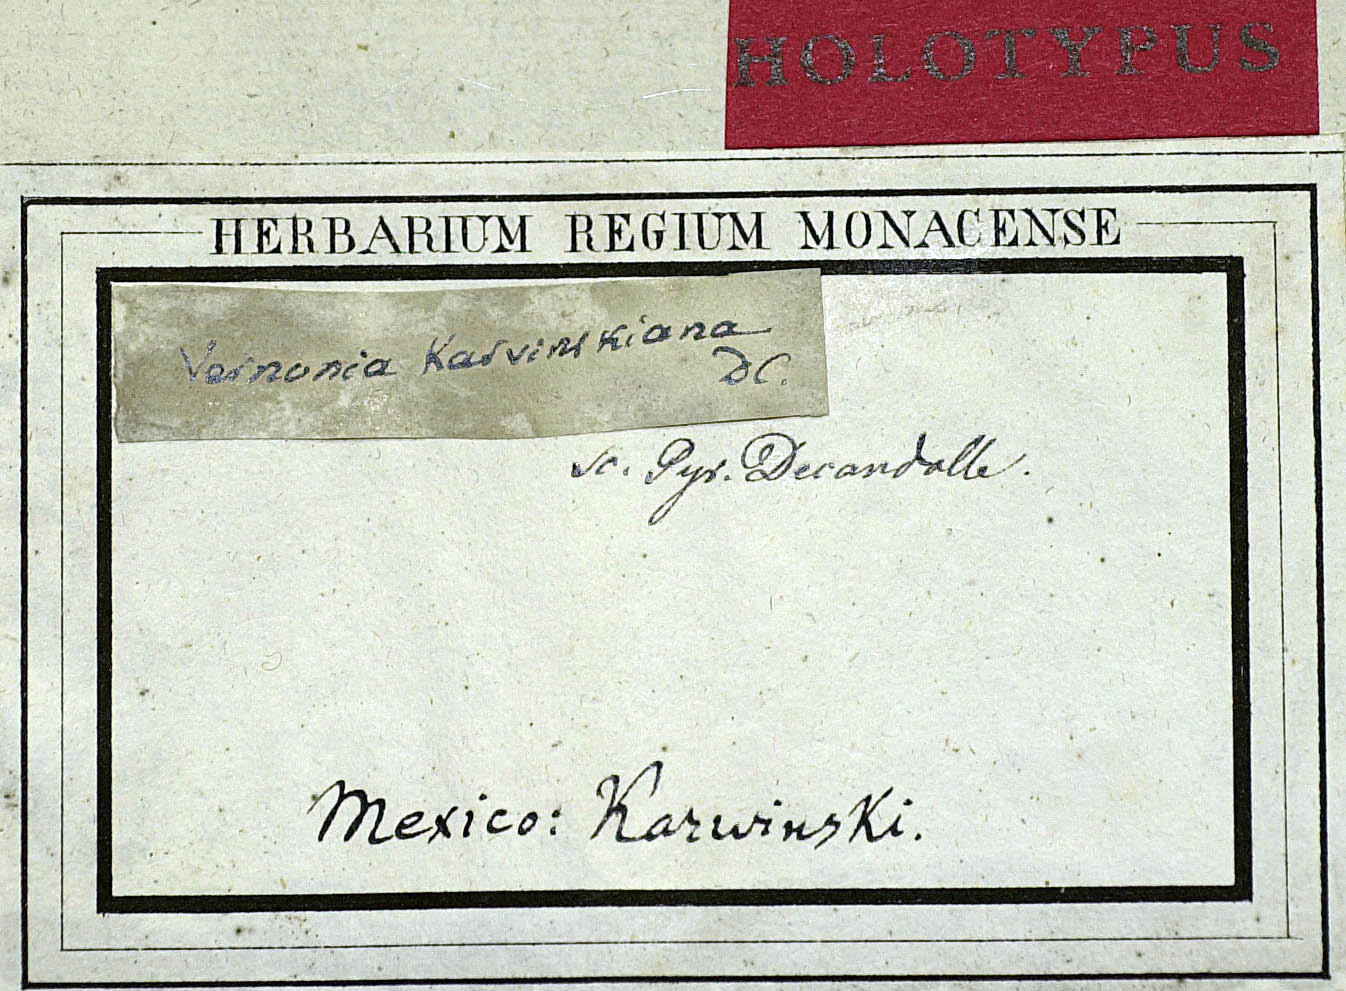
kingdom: Plantae
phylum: Tracheophyta
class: Magnoliopsida
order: Asterales
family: Asteraceae
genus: Vernonia
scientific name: Vernonia karvinskiana
